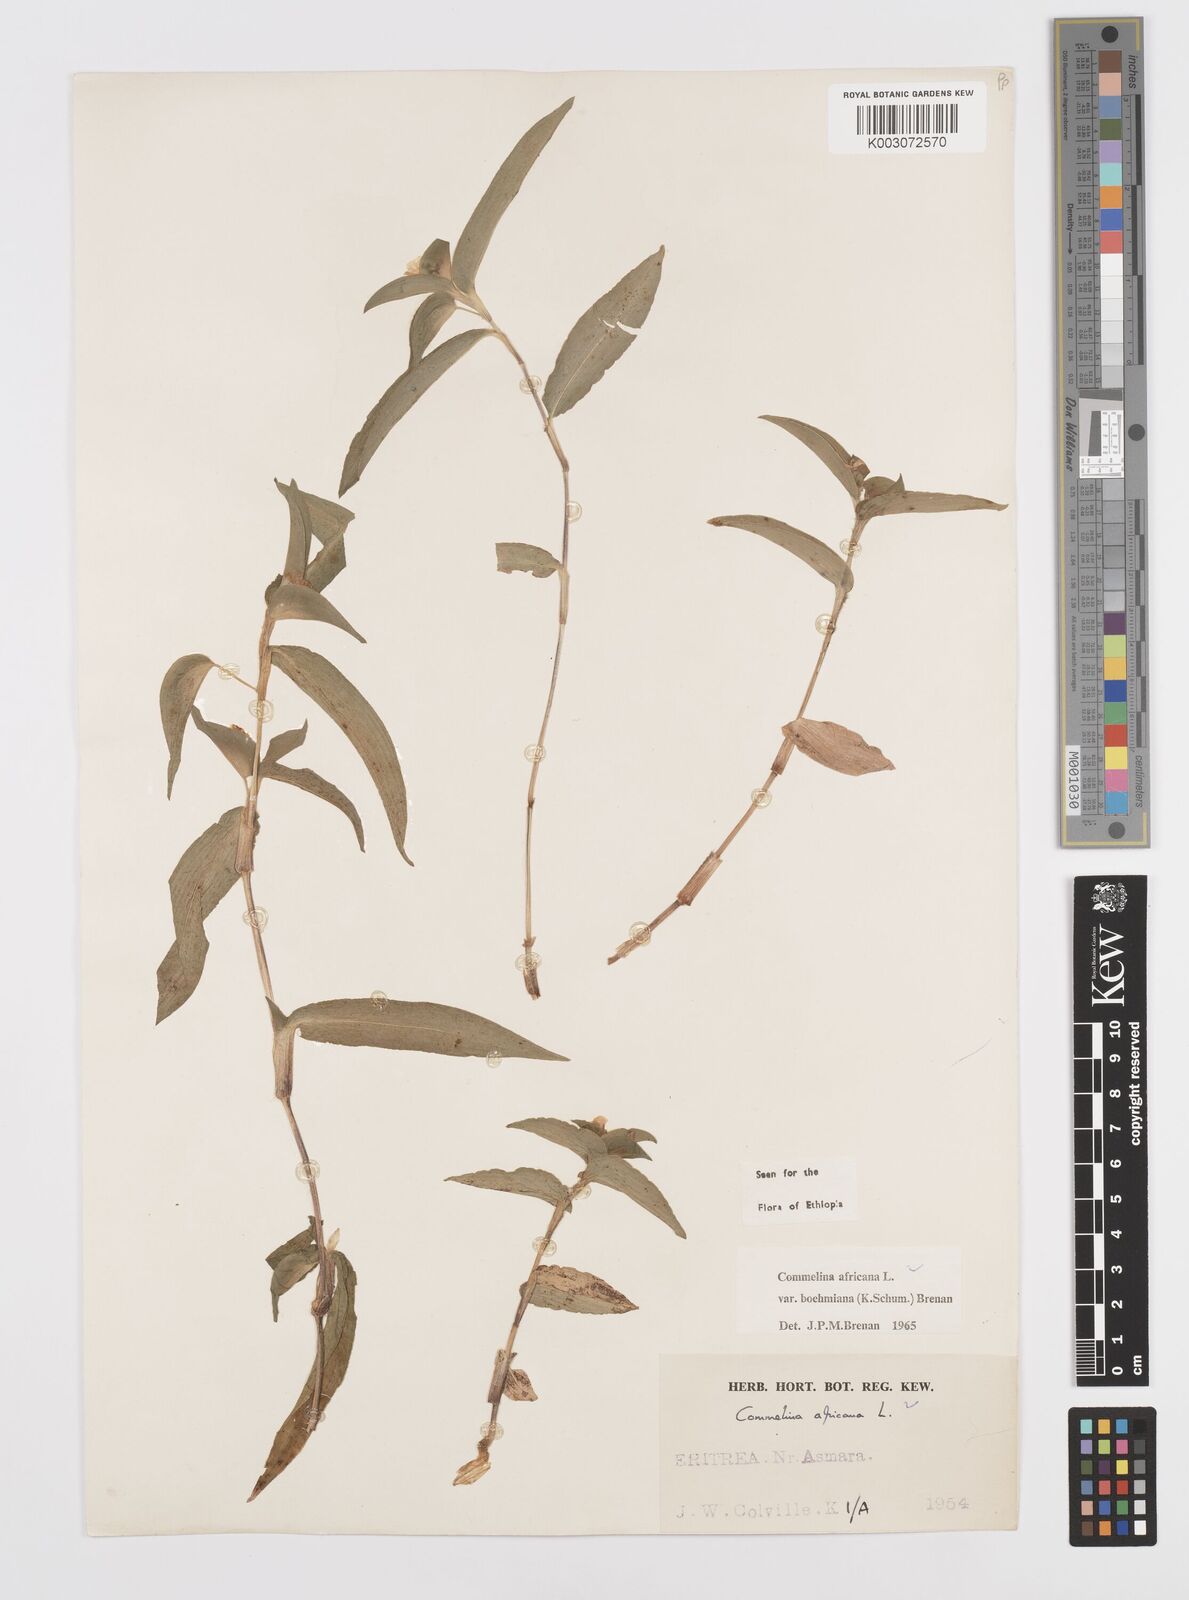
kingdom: Plantae
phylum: Tracheophyta
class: Liliopsida
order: Commelinales
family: Commelinaceae
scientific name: Commelinaceae
